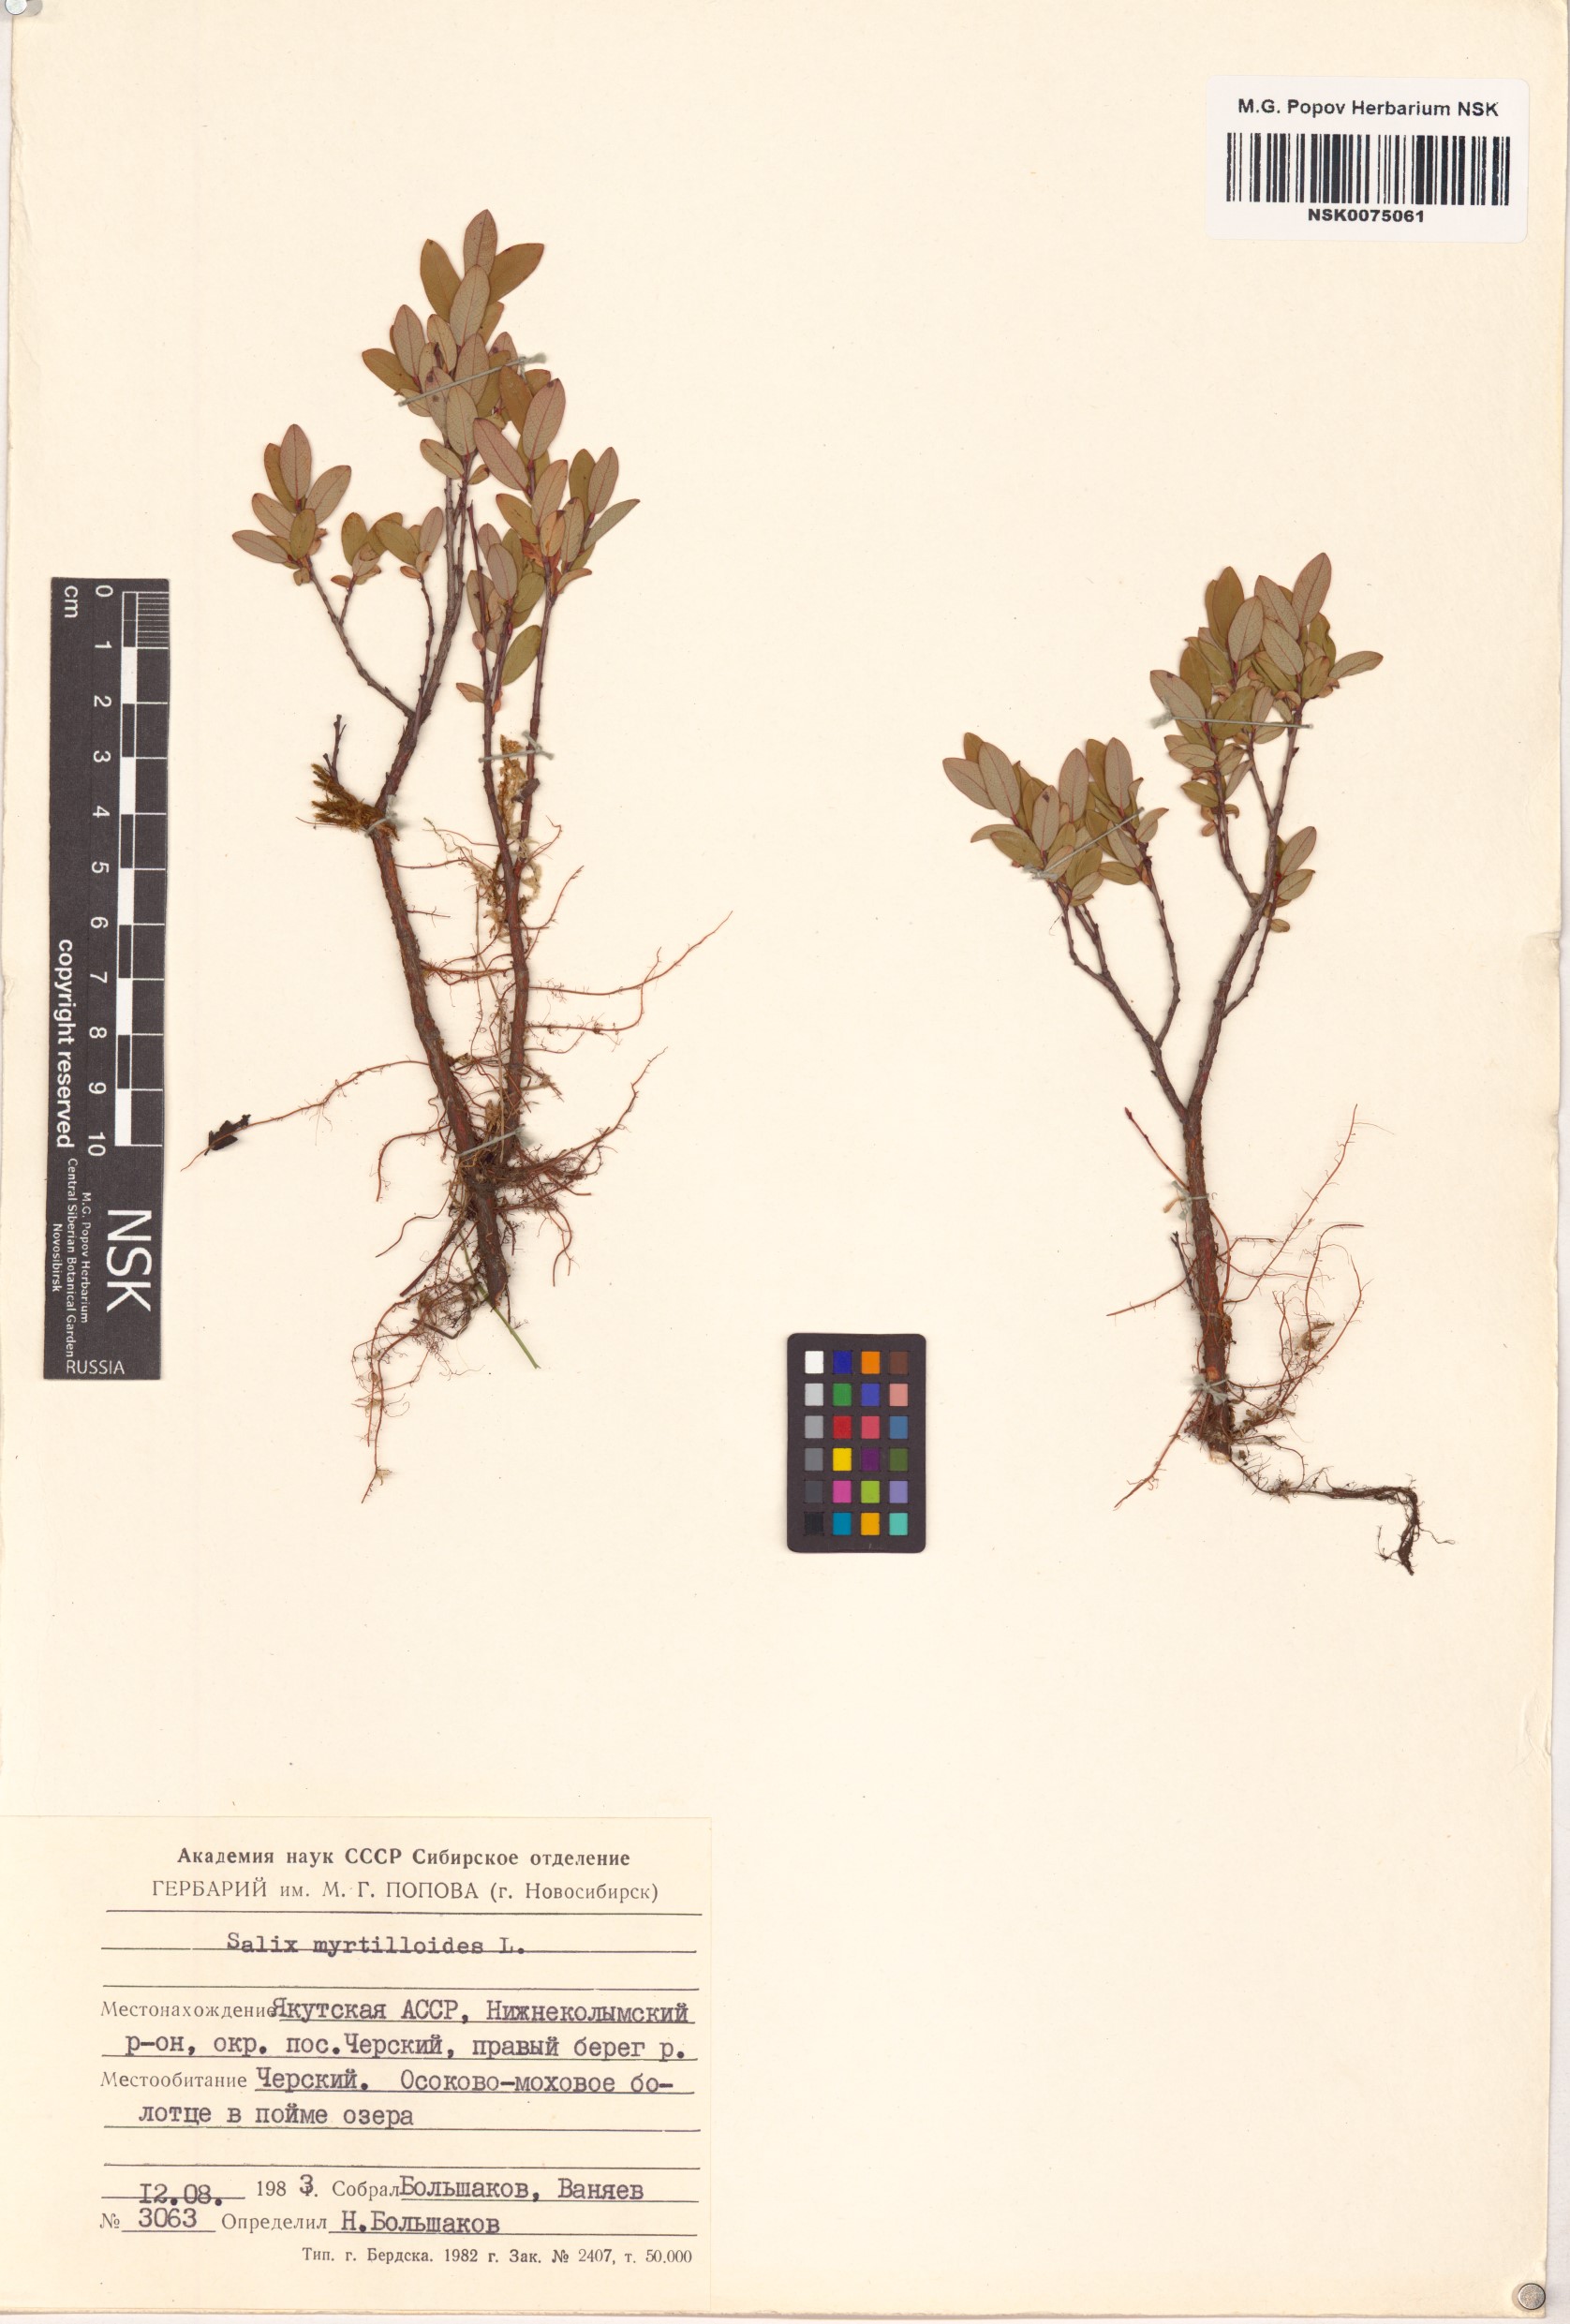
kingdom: Plantae
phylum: Tracheophyta
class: Magnoliopsida
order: Malpighiales
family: Salicaceae
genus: Salix
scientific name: Salix myrtilloides
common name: Myrtle-leaved willow
